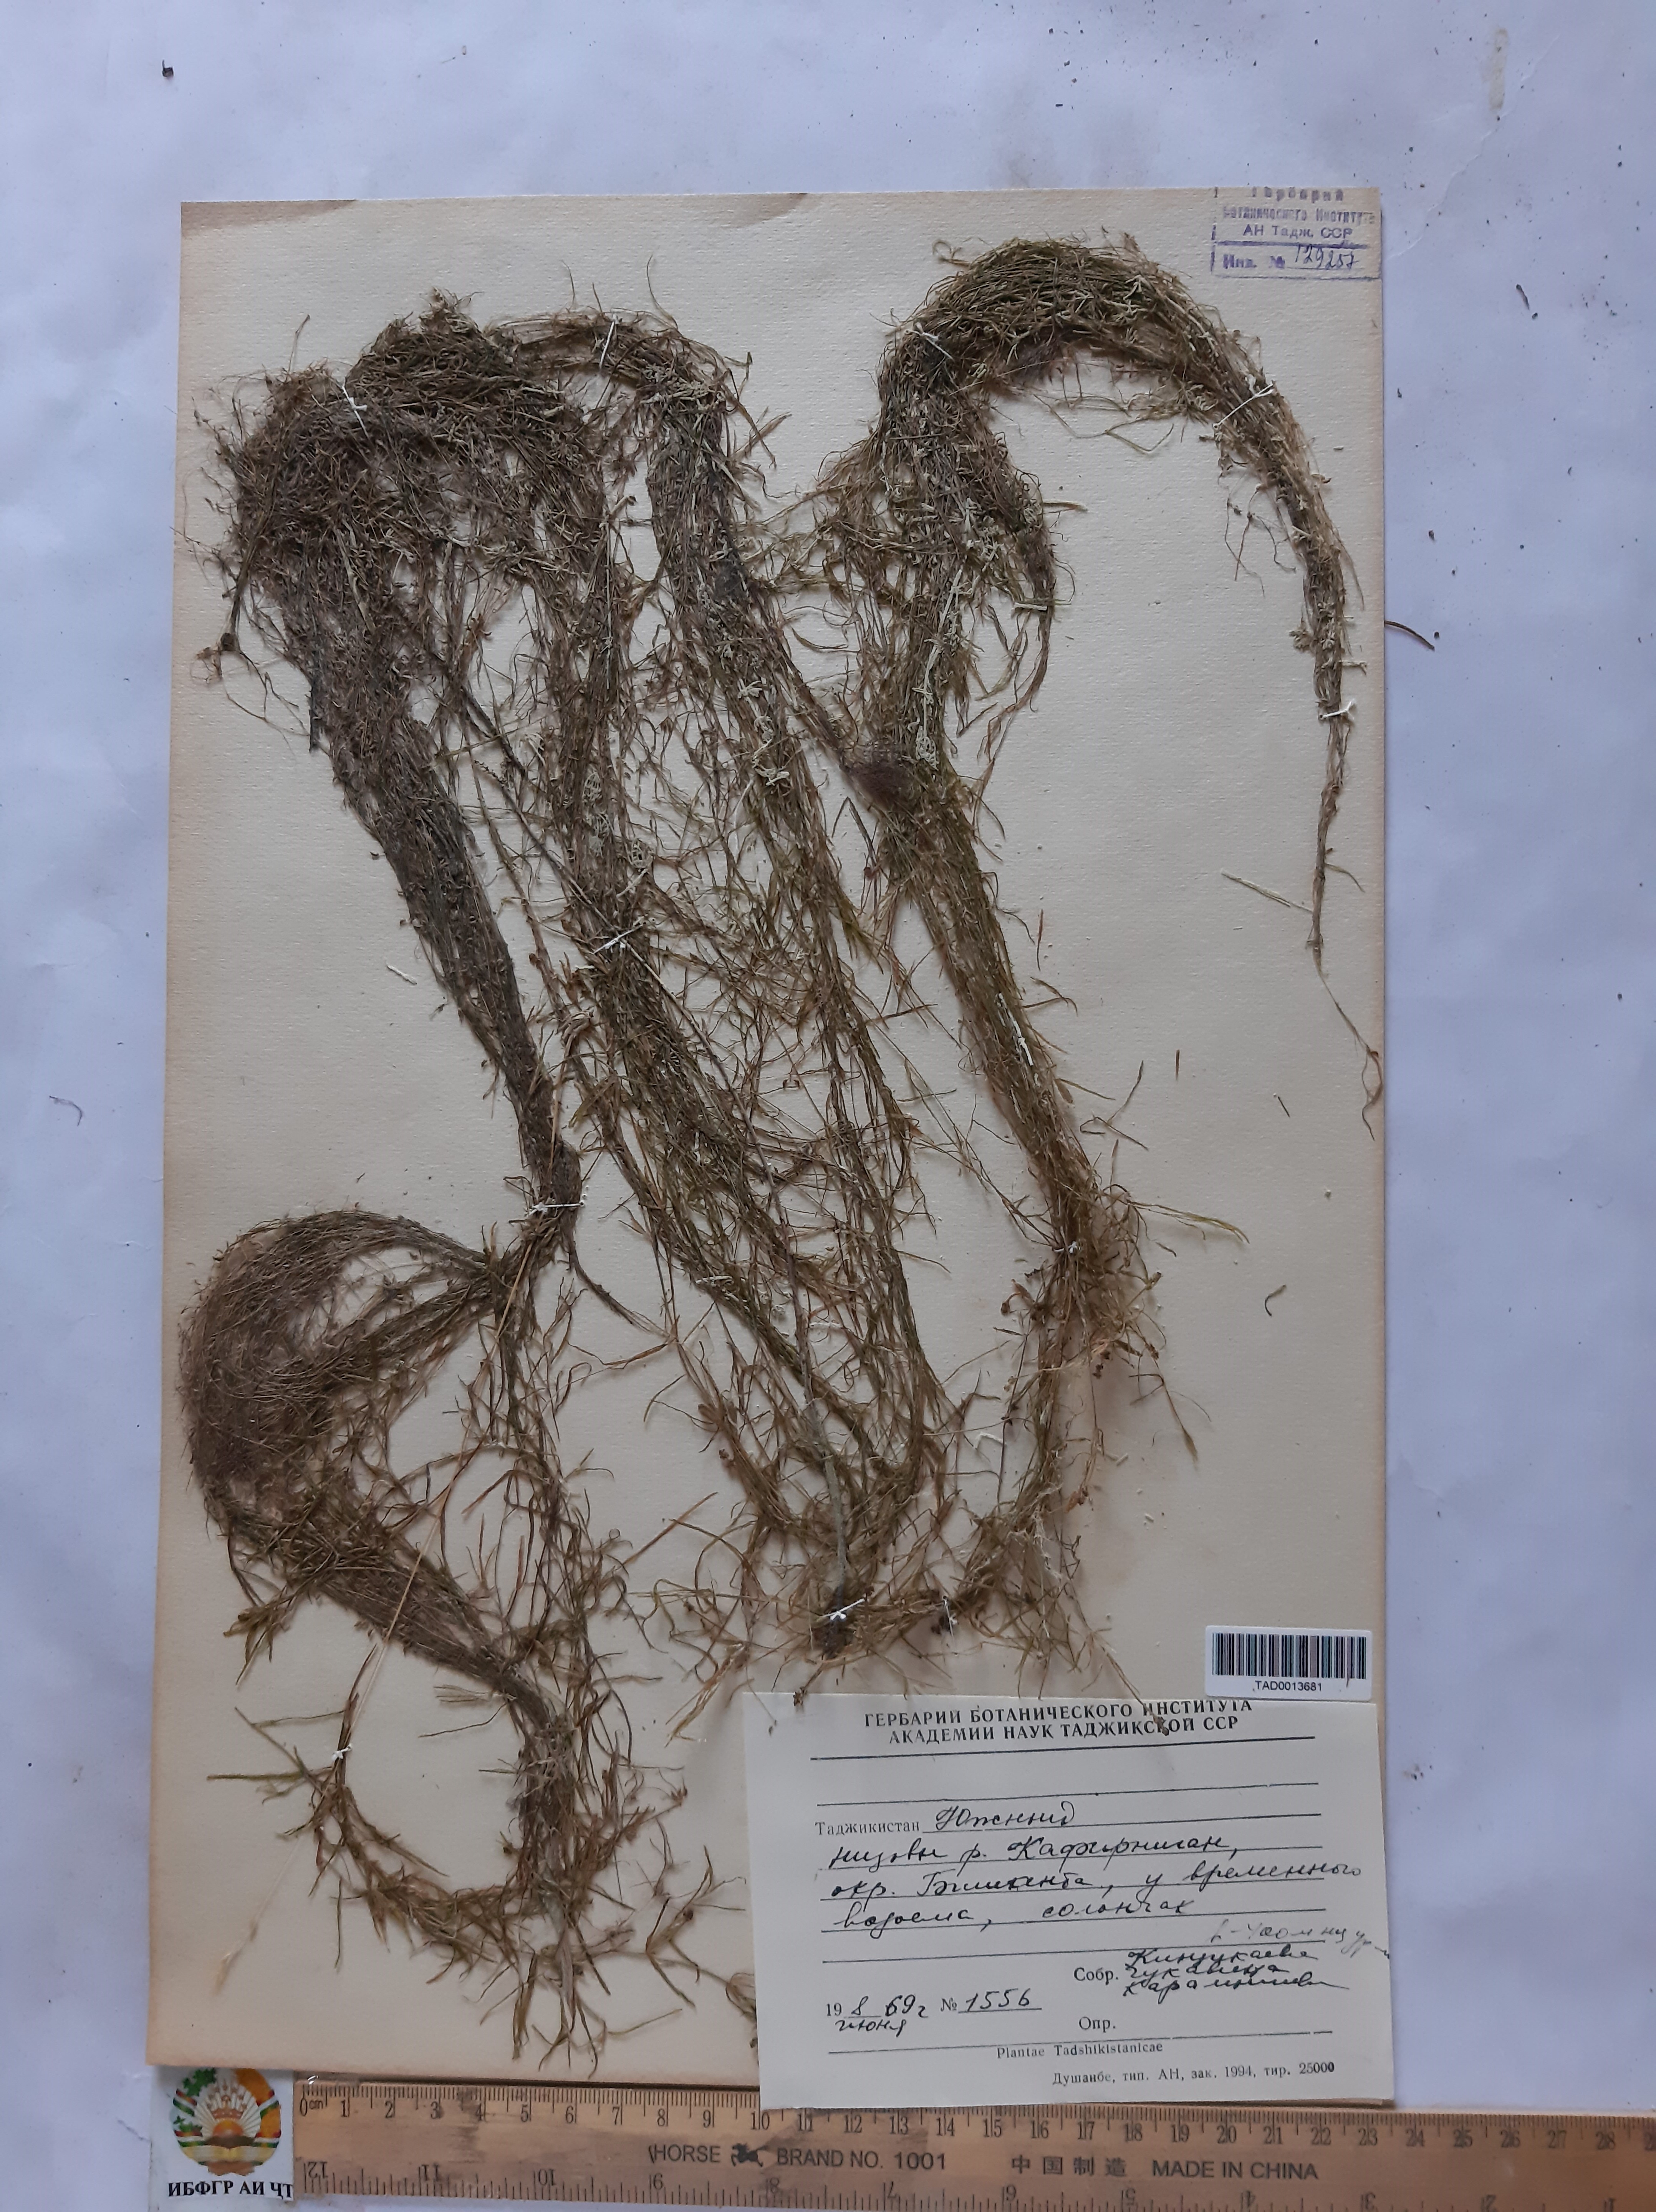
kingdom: Plantae
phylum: Tracheophyta
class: Liliopsida
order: Alismatales
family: Potamogetonaceae
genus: Zannichellia
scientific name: Zannichellia palustris
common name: Horned pondweed
